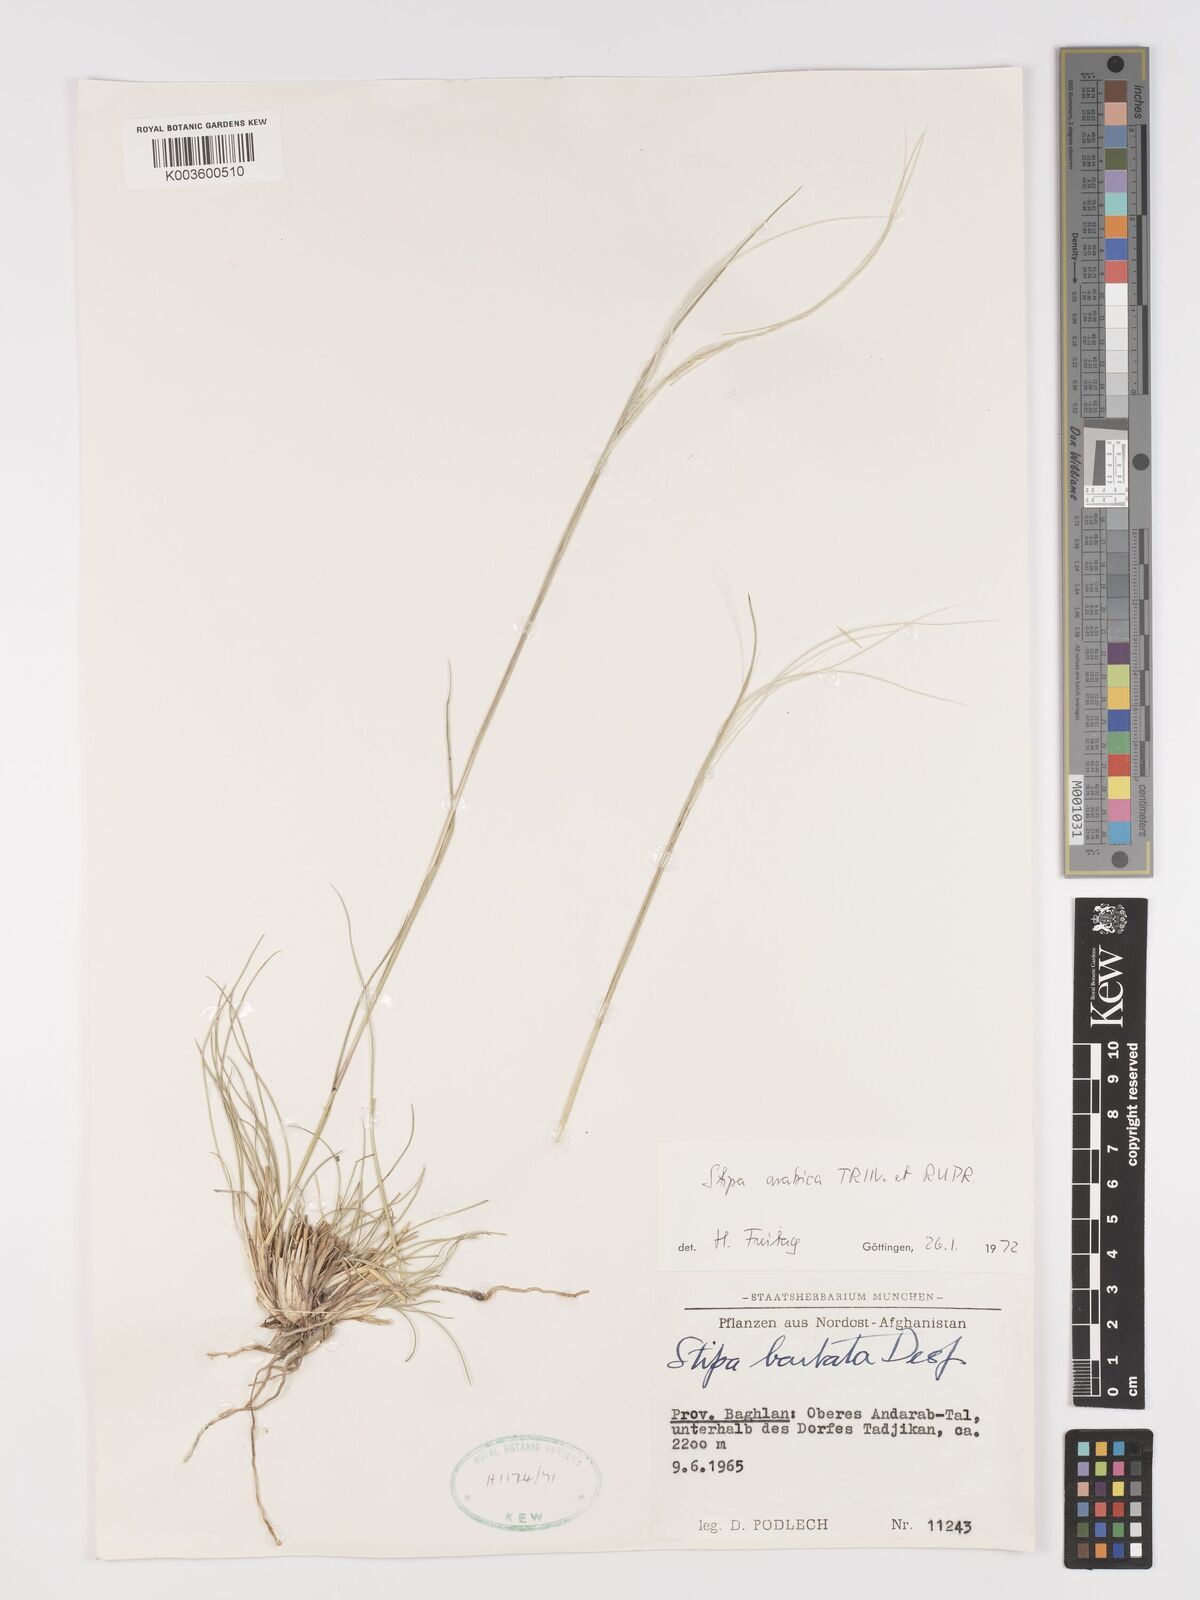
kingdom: Plantae
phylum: Tracheophyta
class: Liliopsida
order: Poales
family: Poaceae
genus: Stipa
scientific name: Stipa arabica
